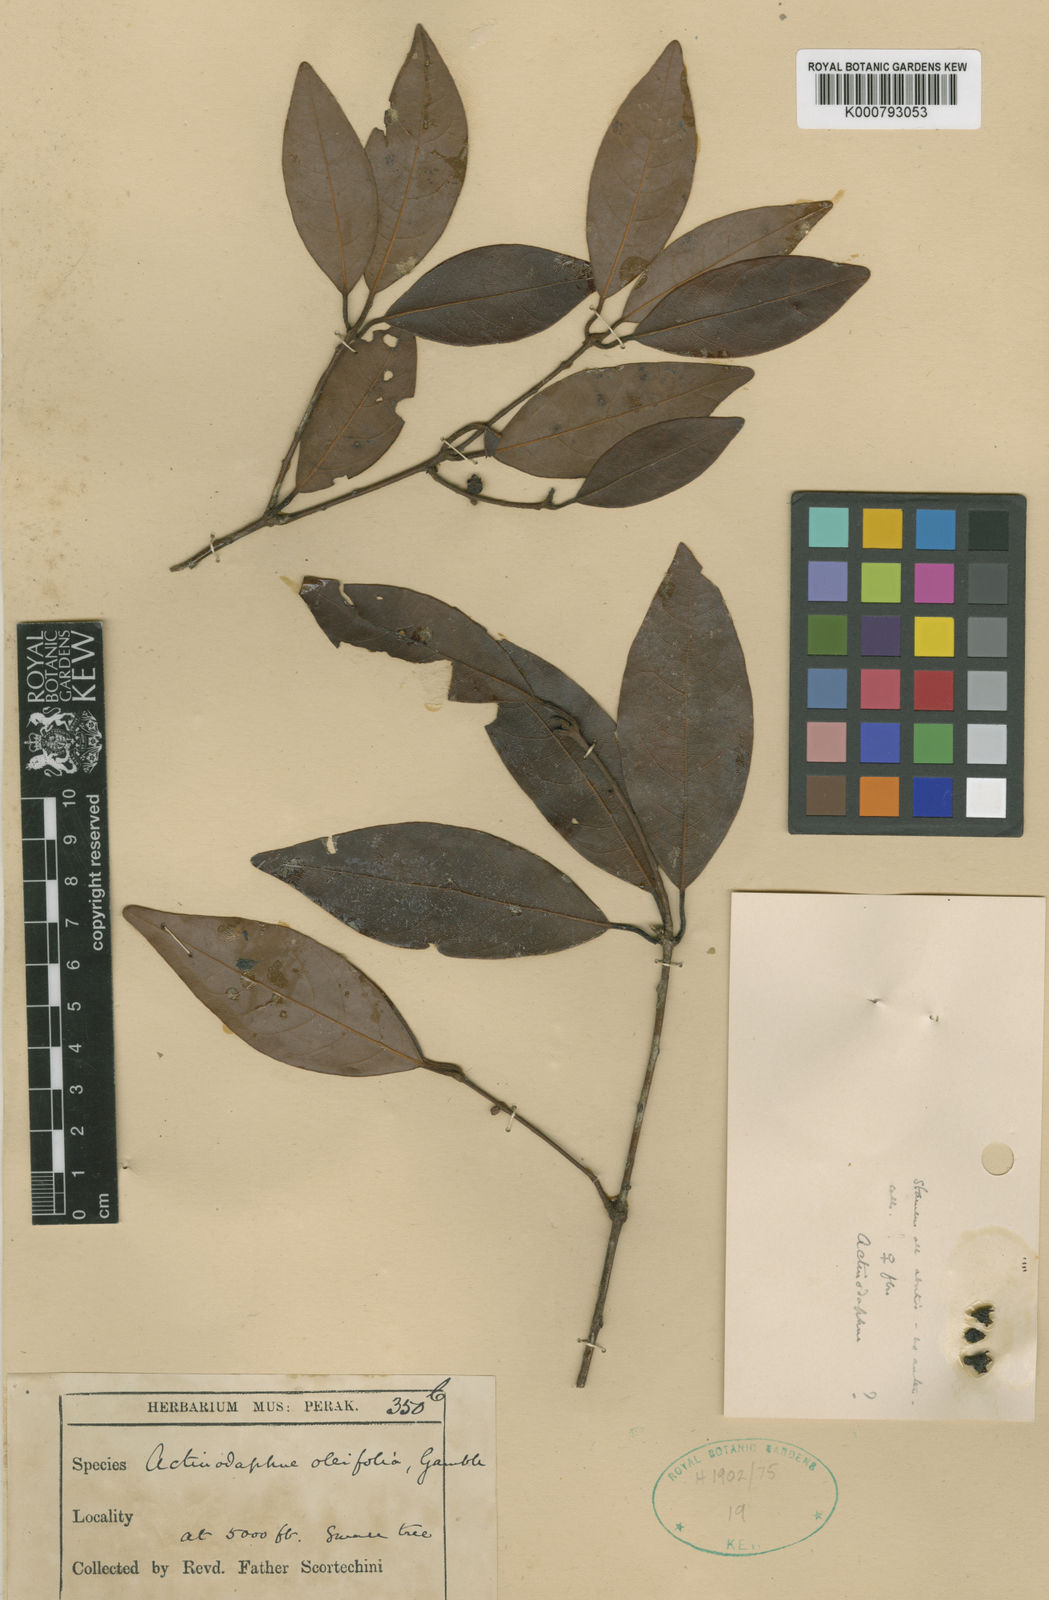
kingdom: Plantae
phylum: Tracheophyta
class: Magnoliopsida
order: Laurales
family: Lauraceae
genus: Actinodaphne
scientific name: Actinodaphne oleifolia
